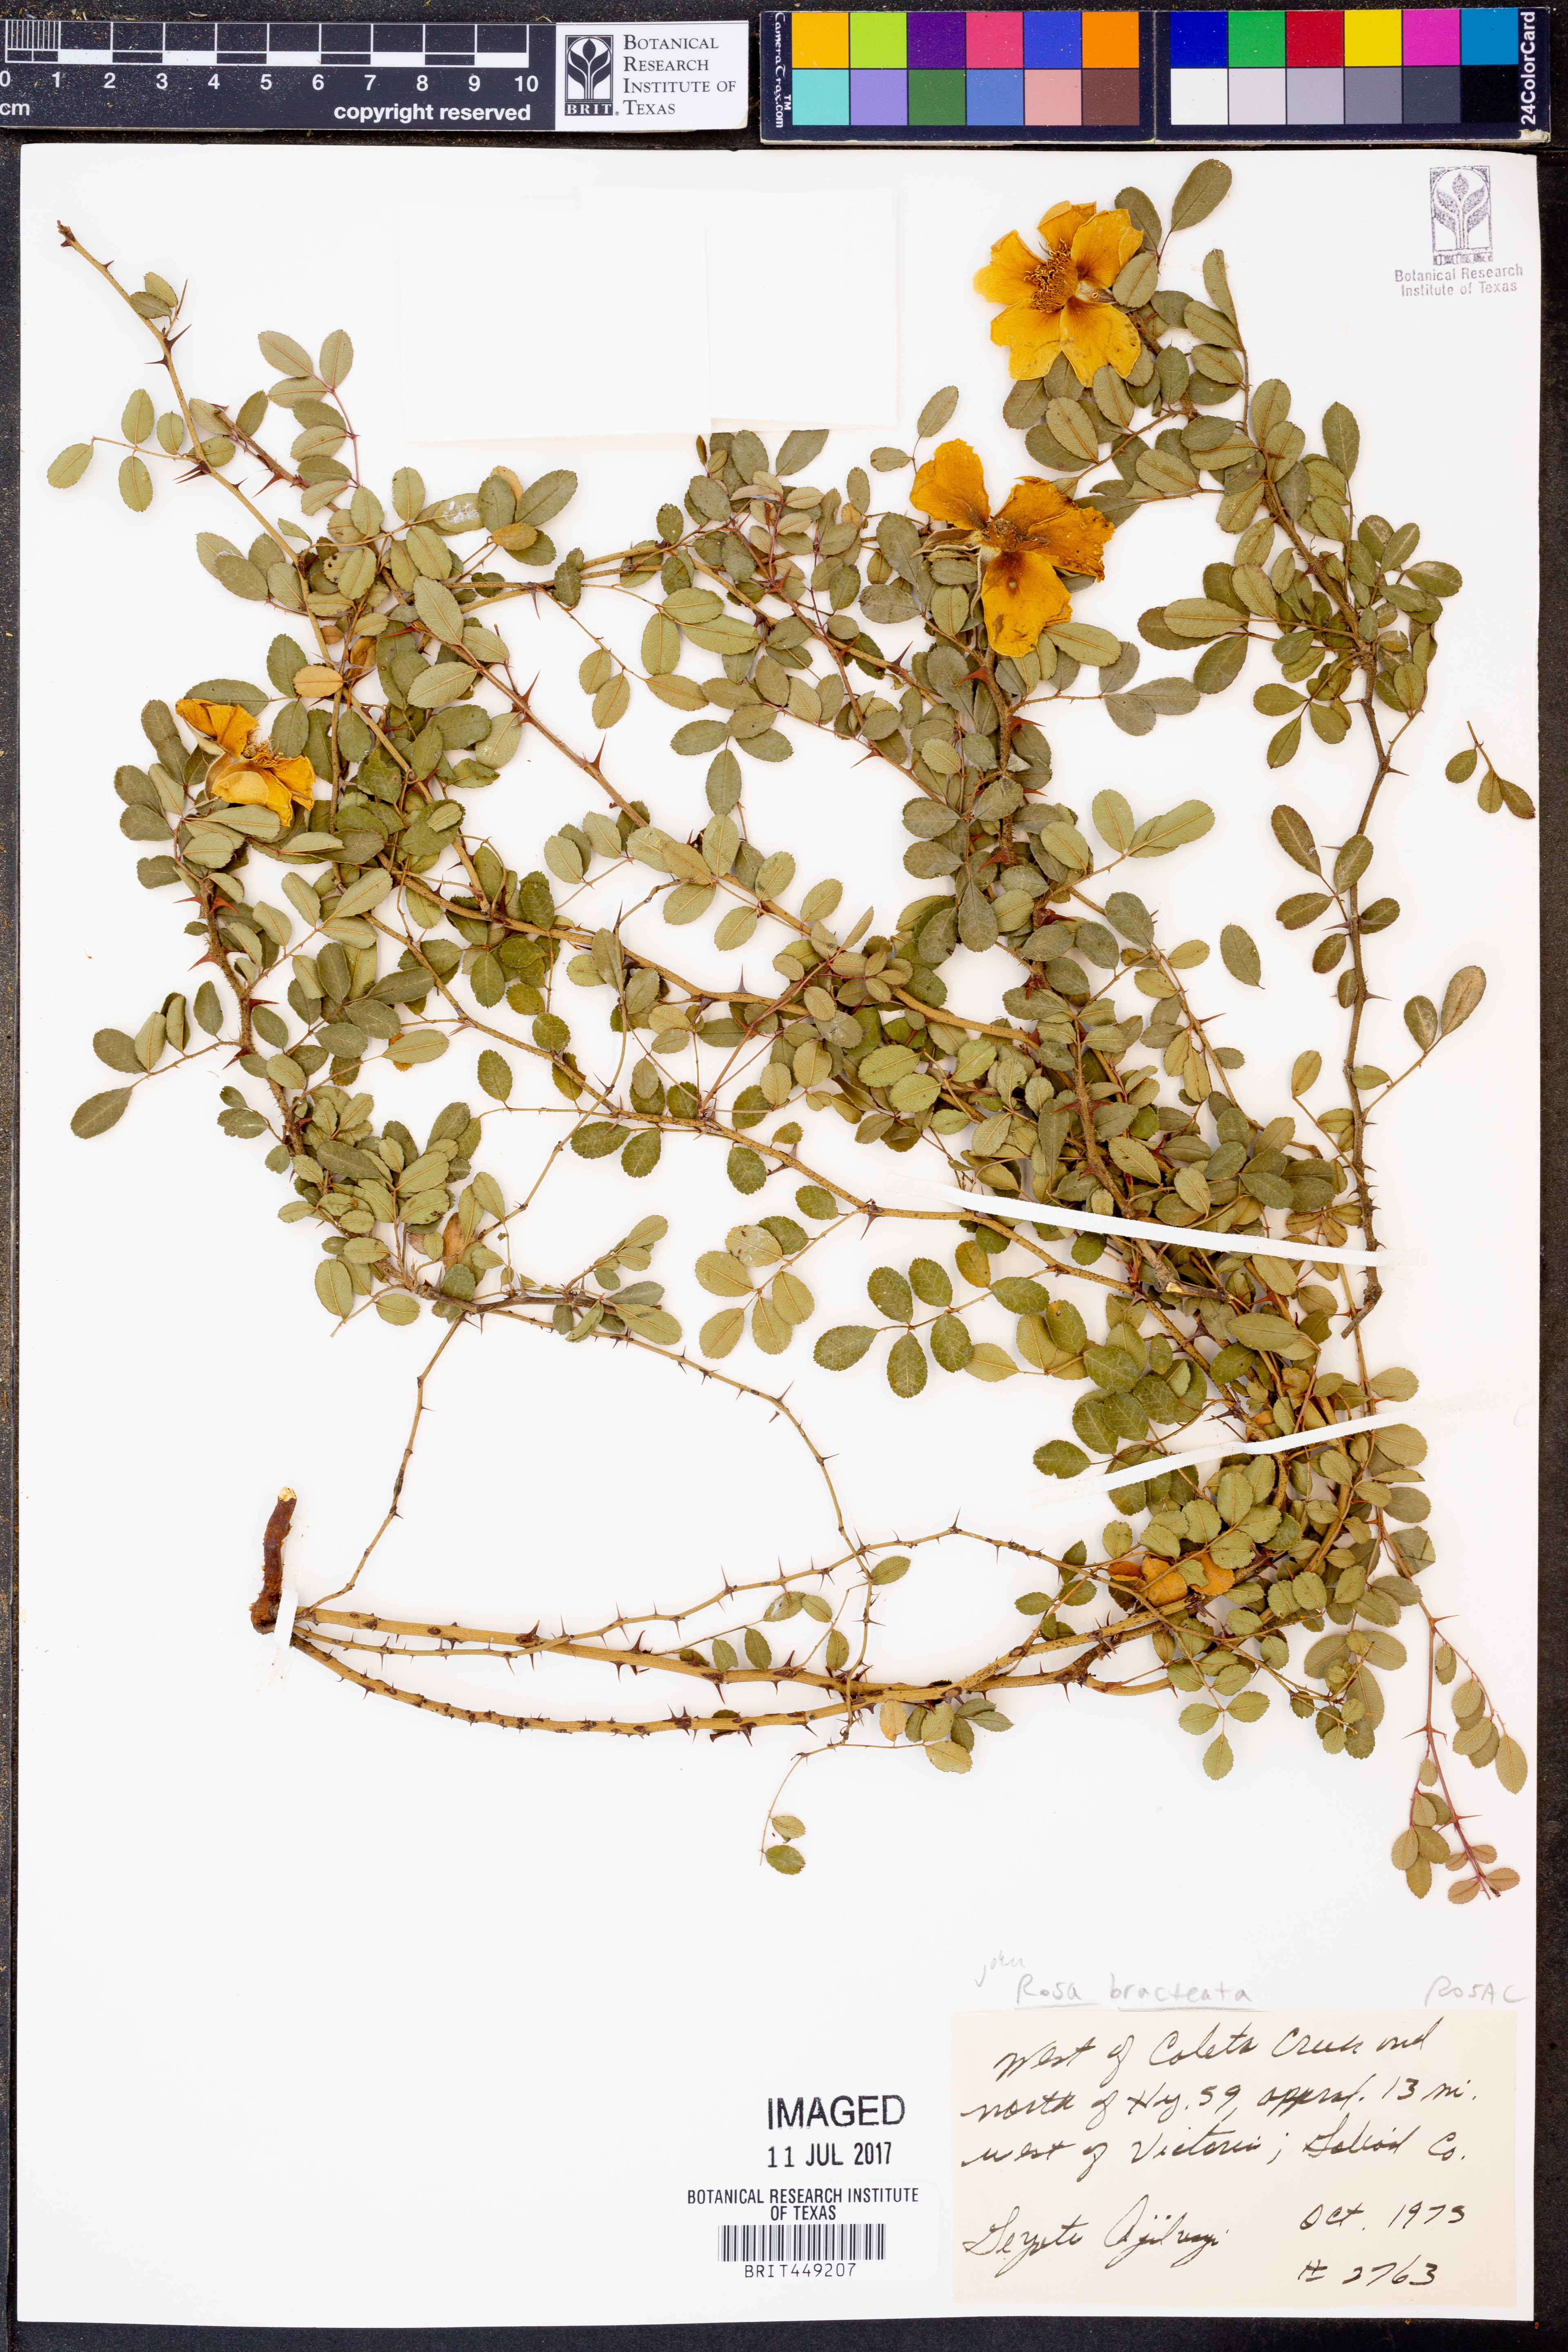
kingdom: Plantae
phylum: Tracheophyta
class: Magnoliopsida
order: Rosales
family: Rosaceae
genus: Rosa
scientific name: Rosa bracteata
